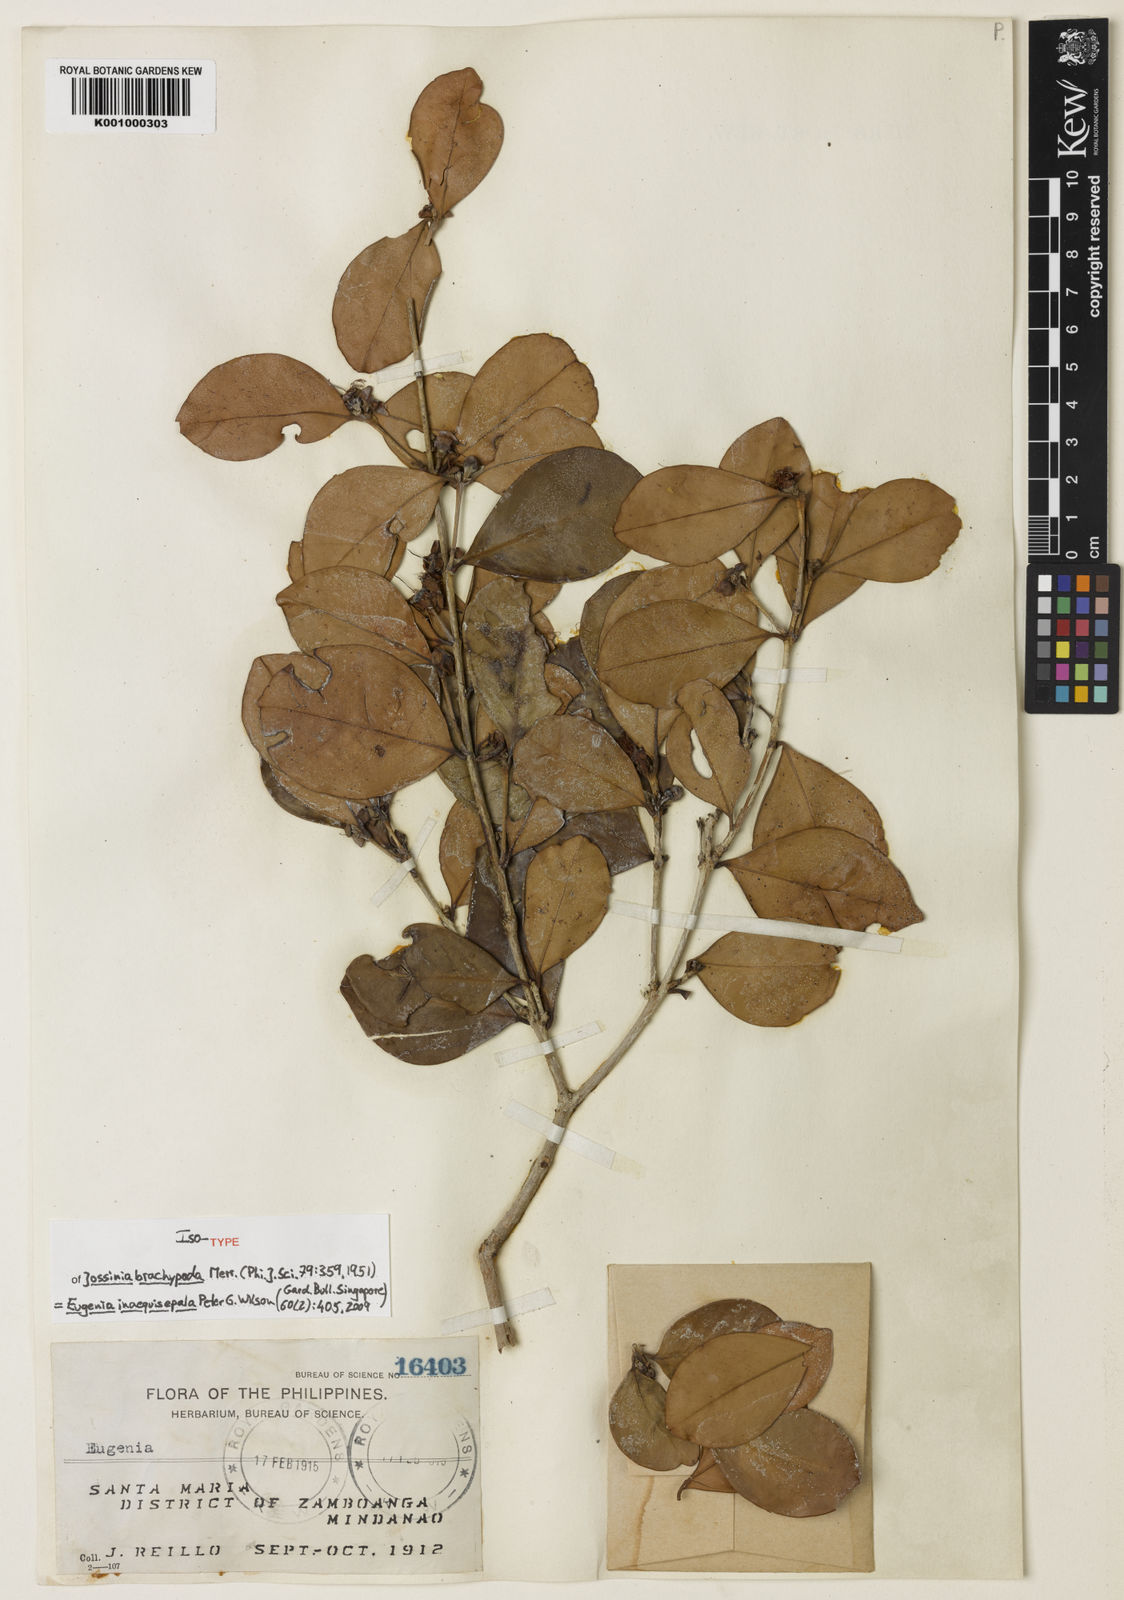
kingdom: Plantae
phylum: Tracheophyta
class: Magnoliopsida
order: Myrtales
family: Myrtaceae
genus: Eugenia
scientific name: Eugenia
